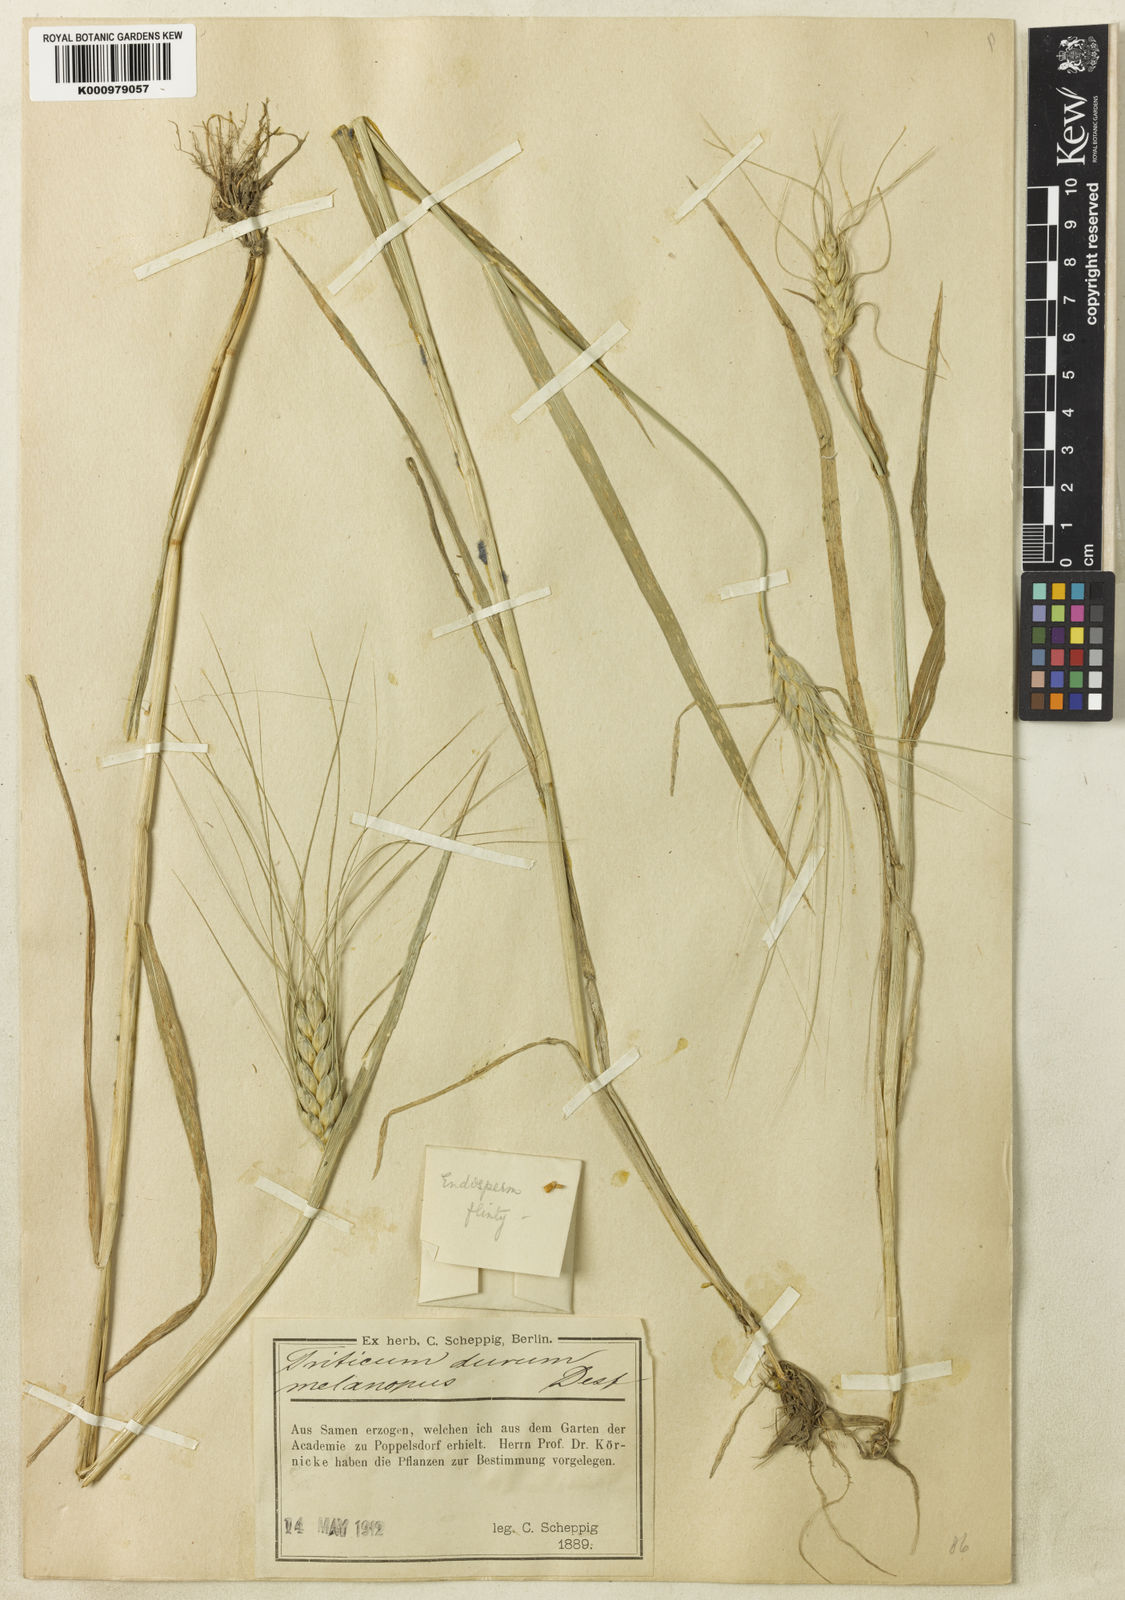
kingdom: Plantae
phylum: Tracheophyta
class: Liliopsida
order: Poales
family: Poaceae
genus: Triticum
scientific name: Triticum turgidum
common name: Rivet wheat
